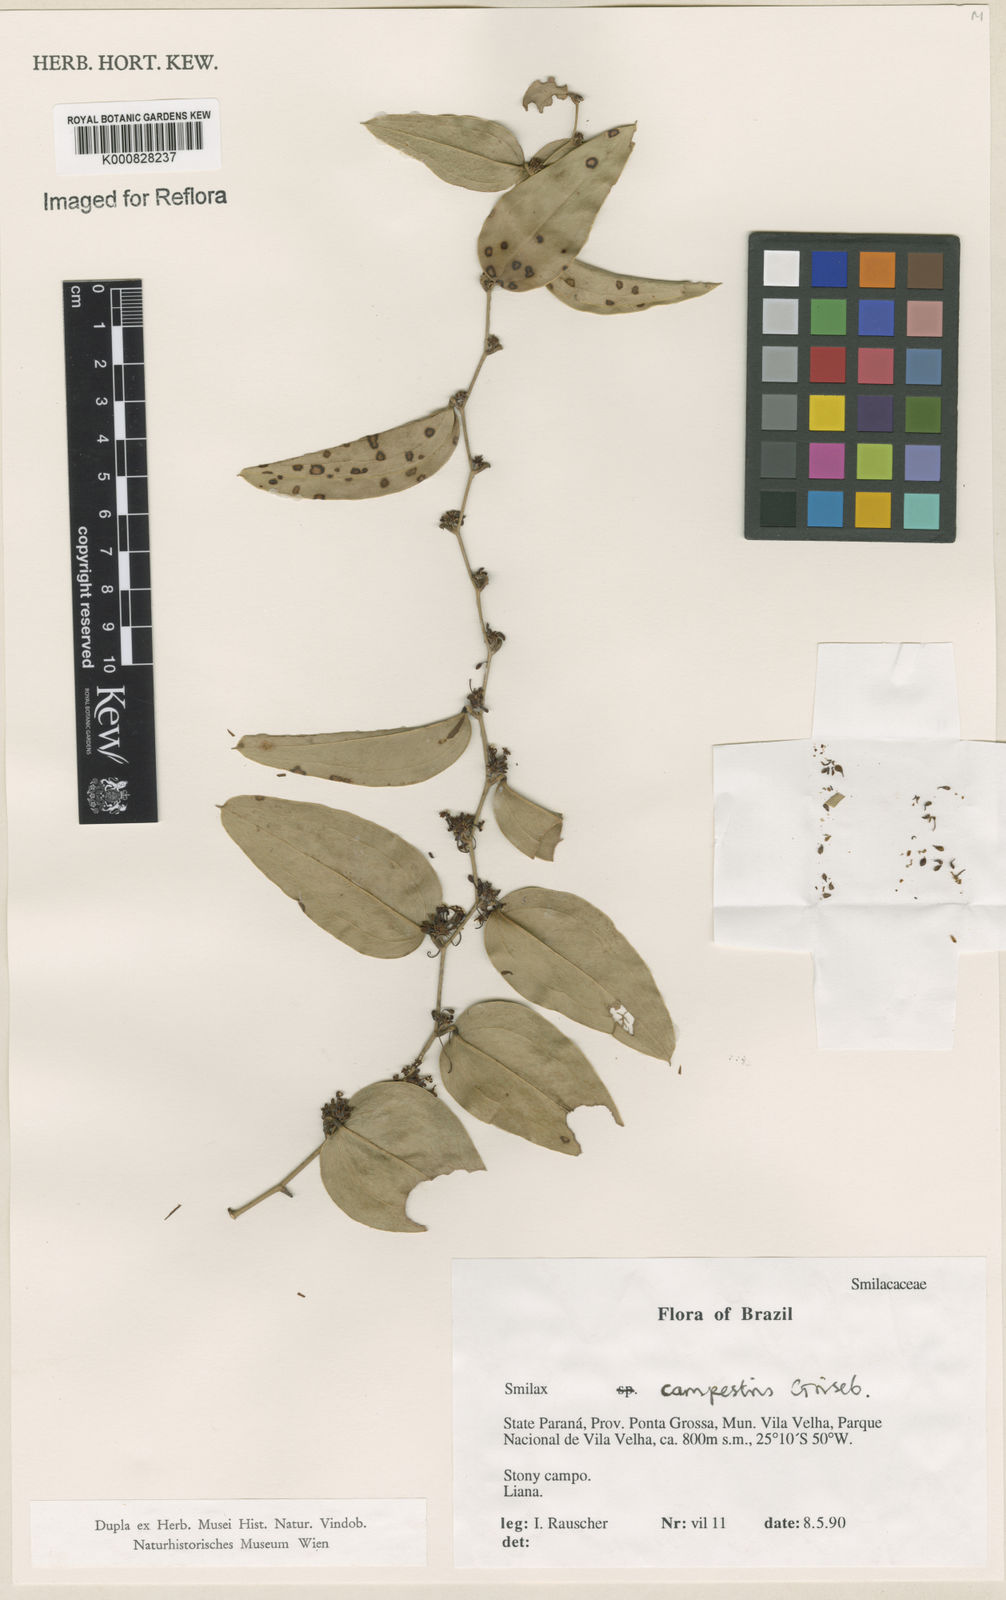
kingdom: Plantae
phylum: Tracheophyta
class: Liliopsida
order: Liliales
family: Smilacaceae
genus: Smilax
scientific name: Smilax campestris
